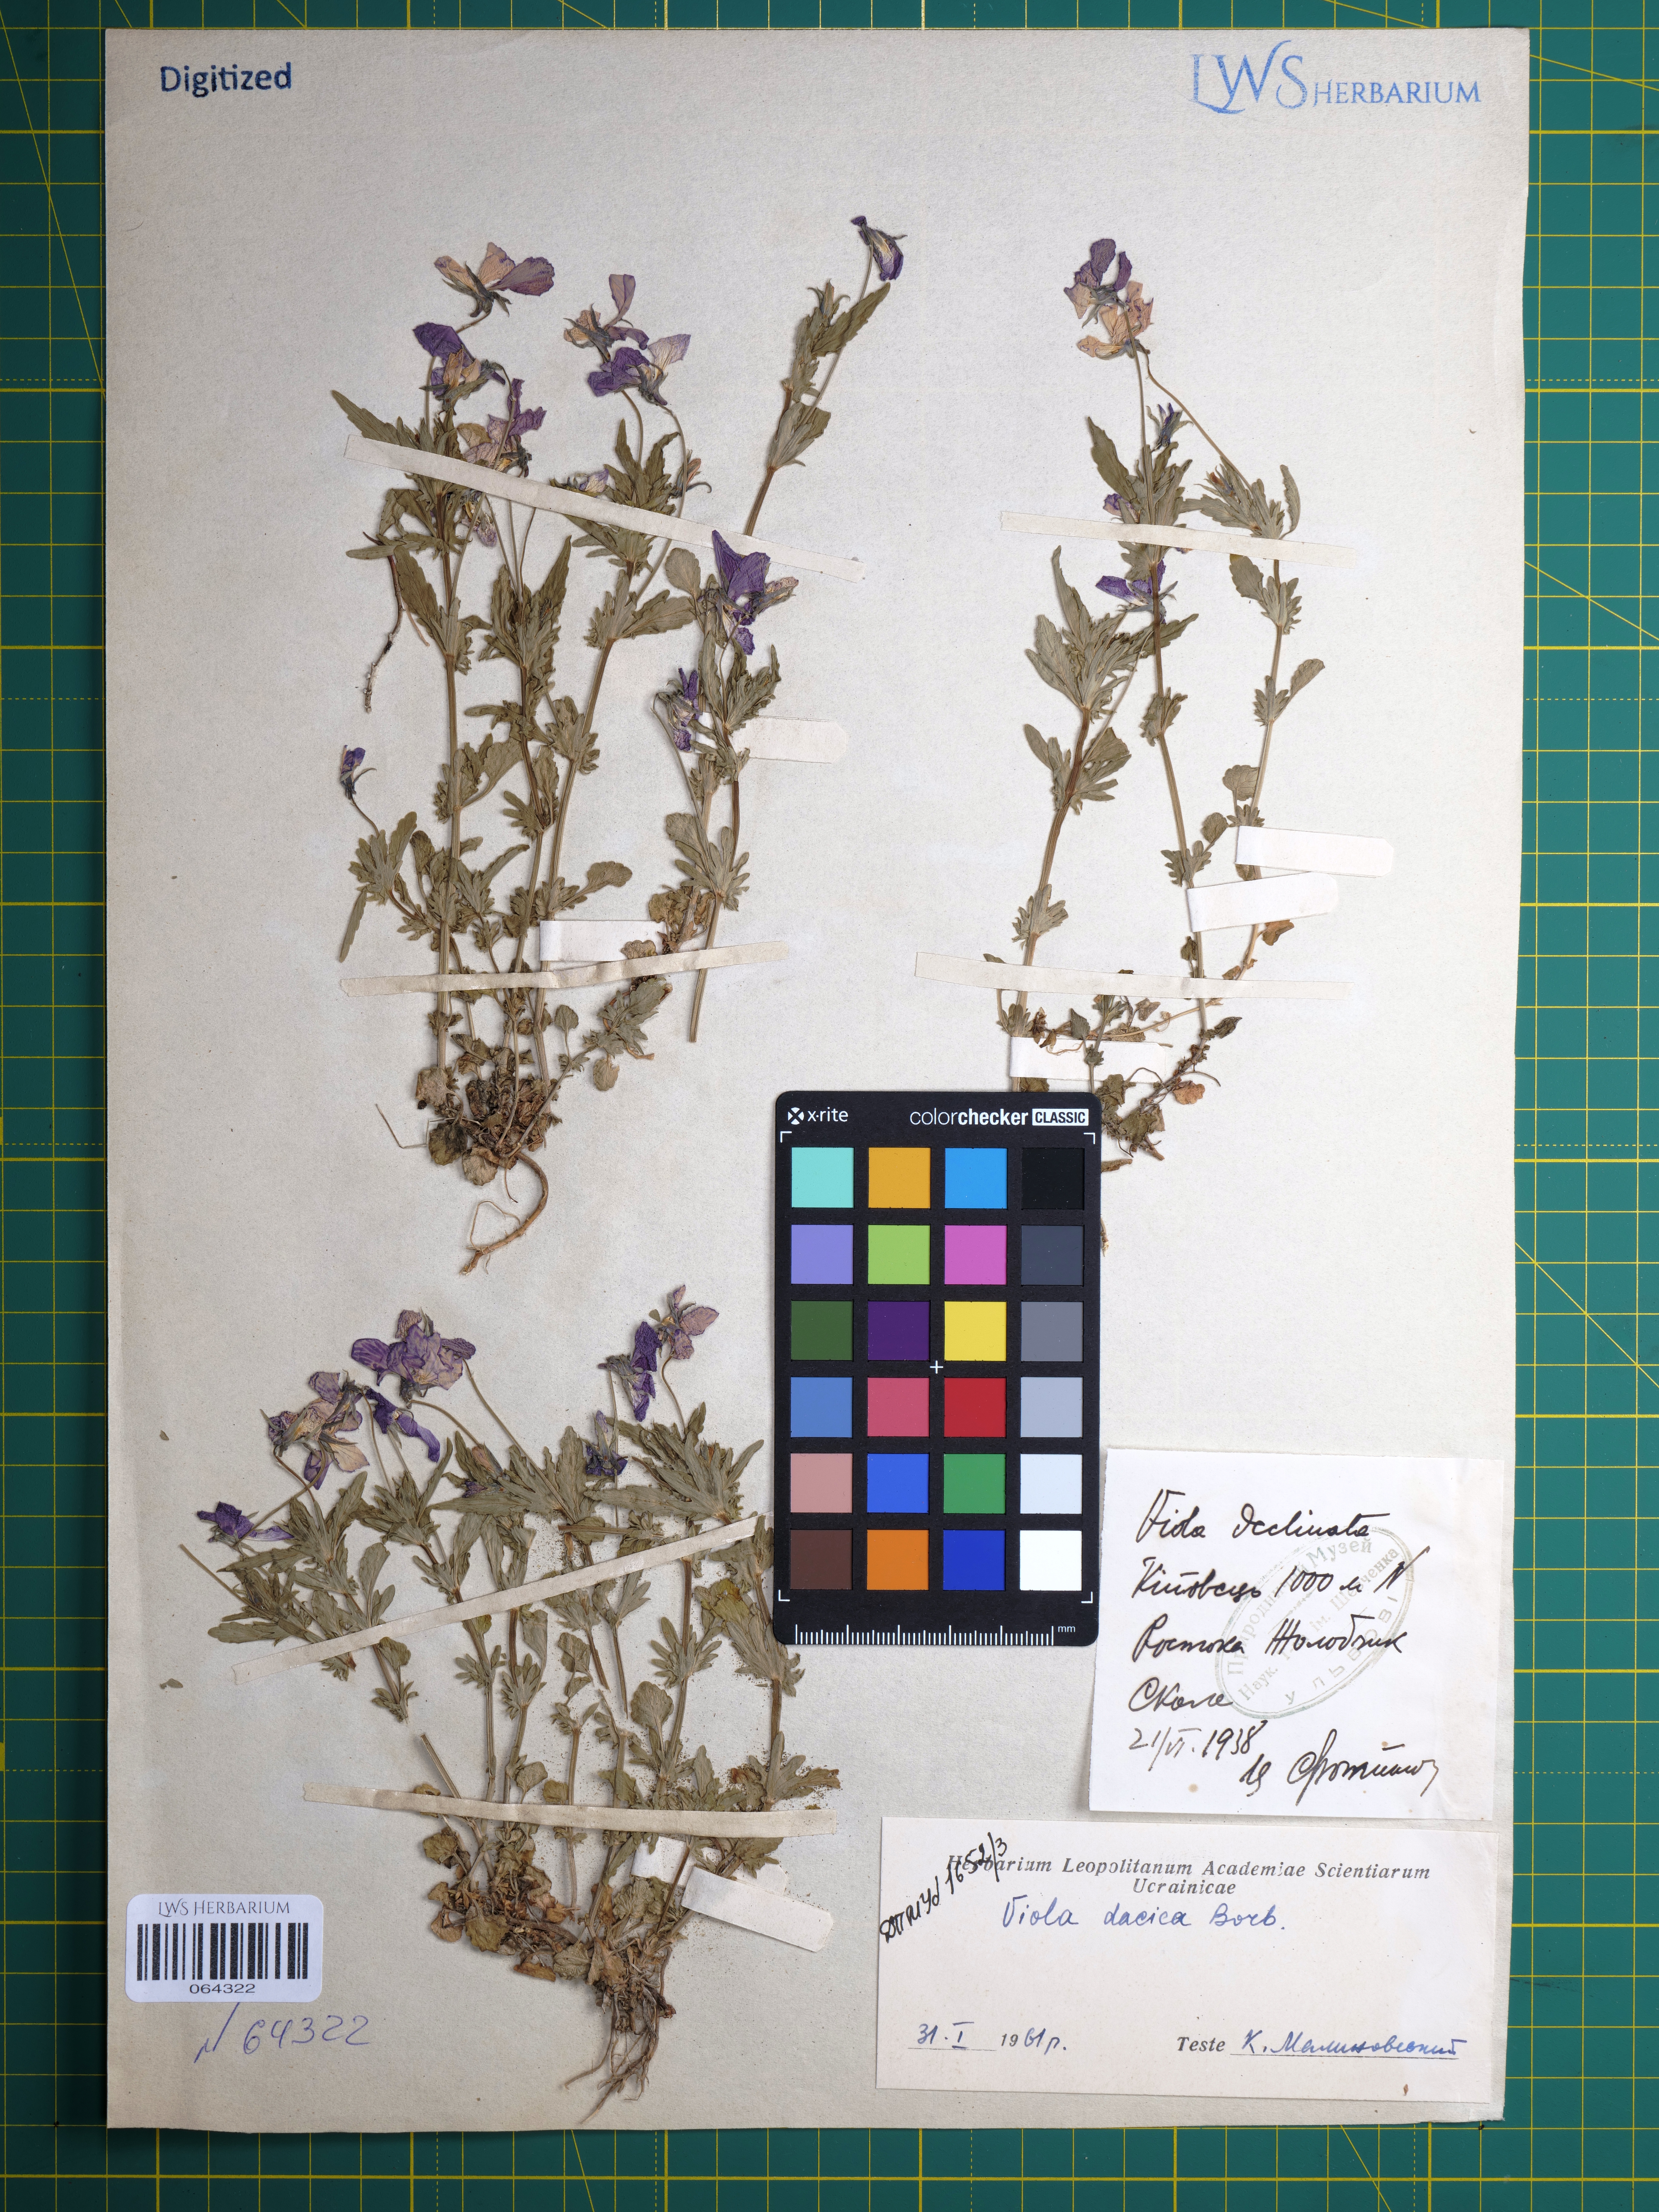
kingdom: Plantae
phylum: Tracheophyta
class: Magnoliopsida
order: Malpighiales
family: Violaceae
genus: Viola
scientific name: Viola dacica
